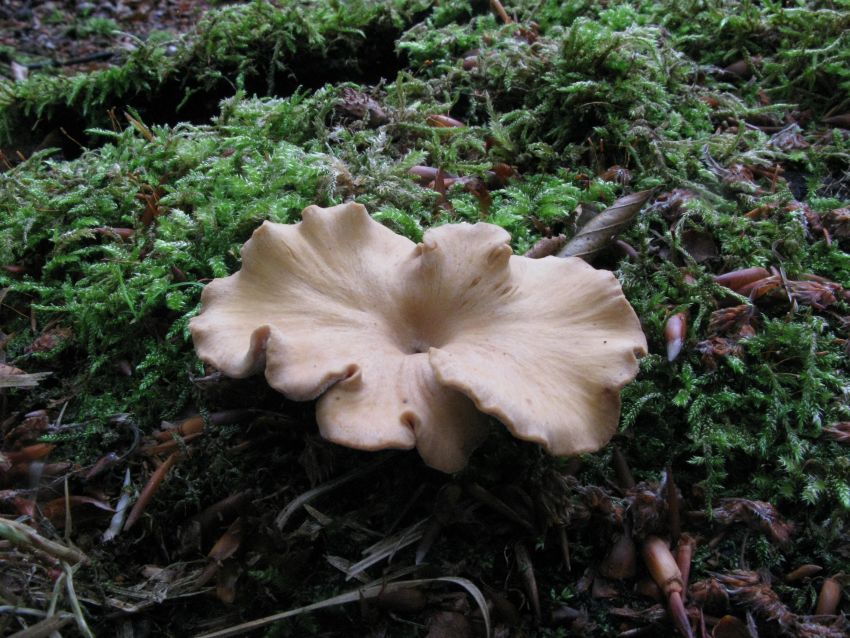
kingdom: Fungi
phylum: Basidiomycota
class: Agaricomycetes
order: Polyporales
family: Polyporaceae
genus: Cerioporus
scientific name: Cerioporus varius
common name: foranderlig stilkporesvamp
